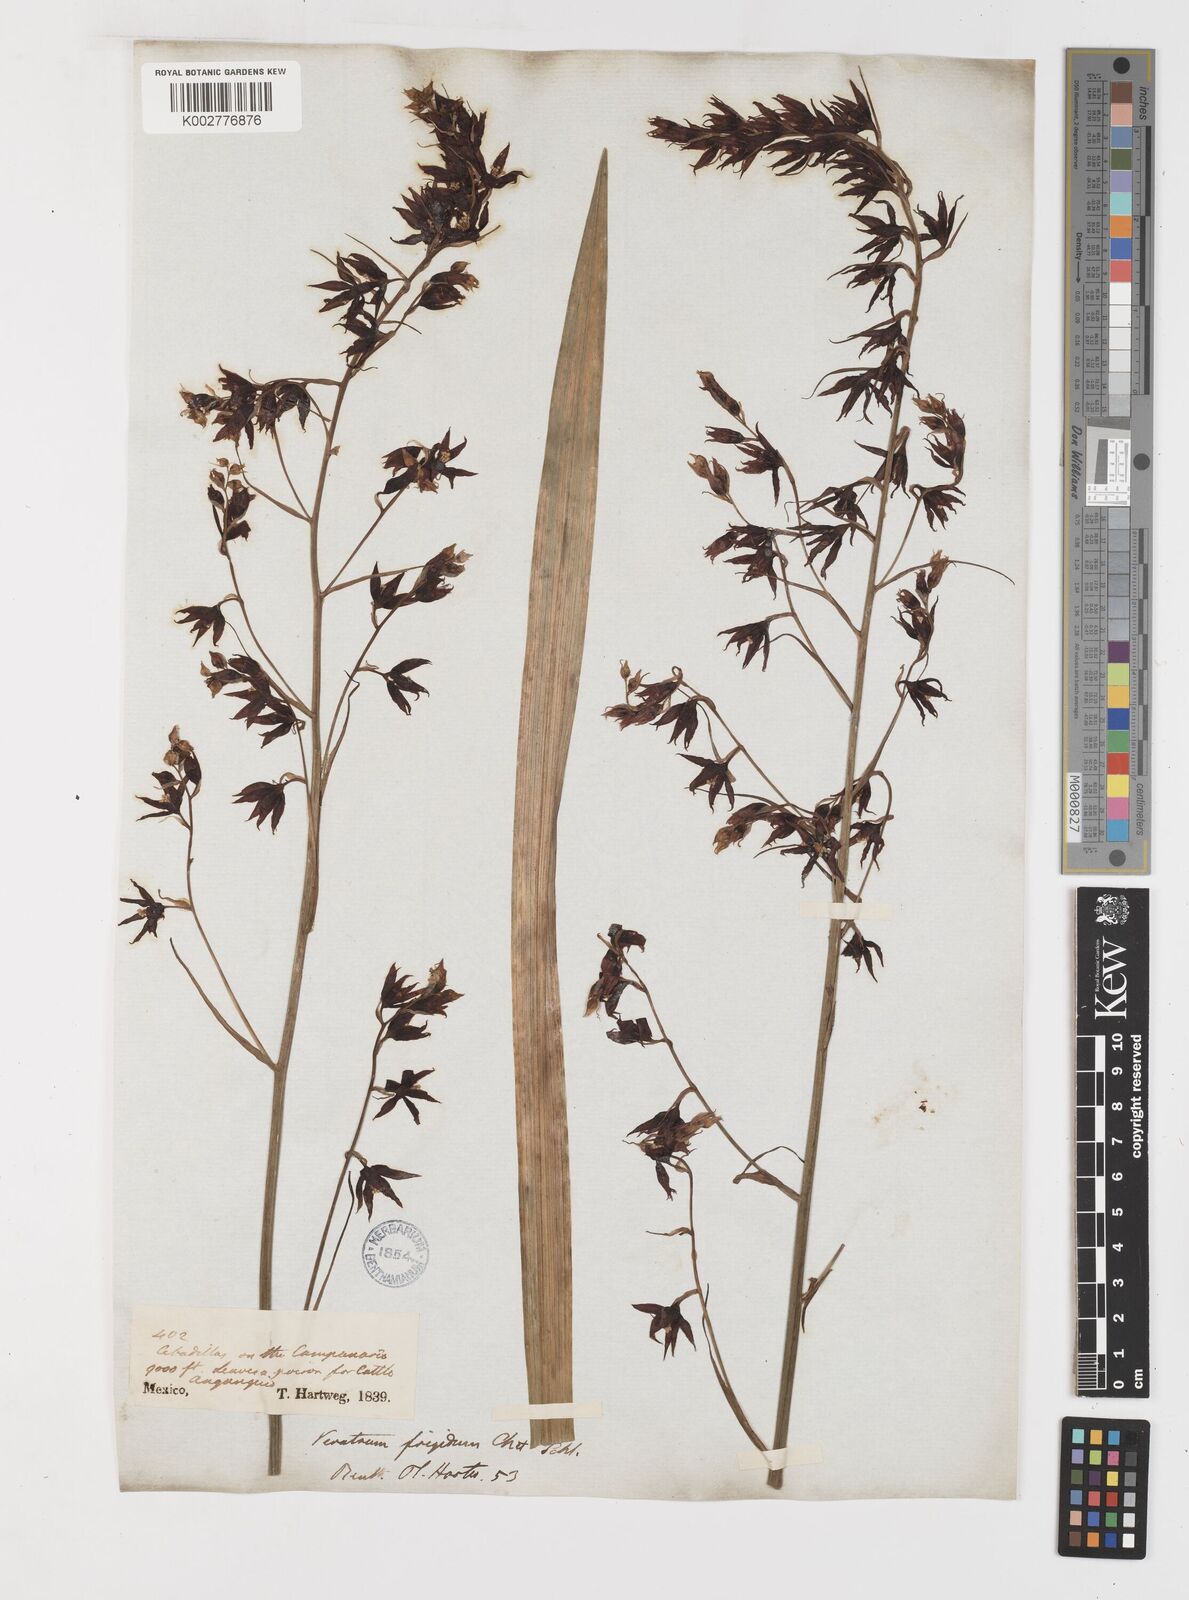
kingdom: Plantae
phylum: Tracheophyta
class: Liliopsida
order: Liliales
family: Melanthiaceae
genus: Anticlea
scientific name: Anticlea frigida
